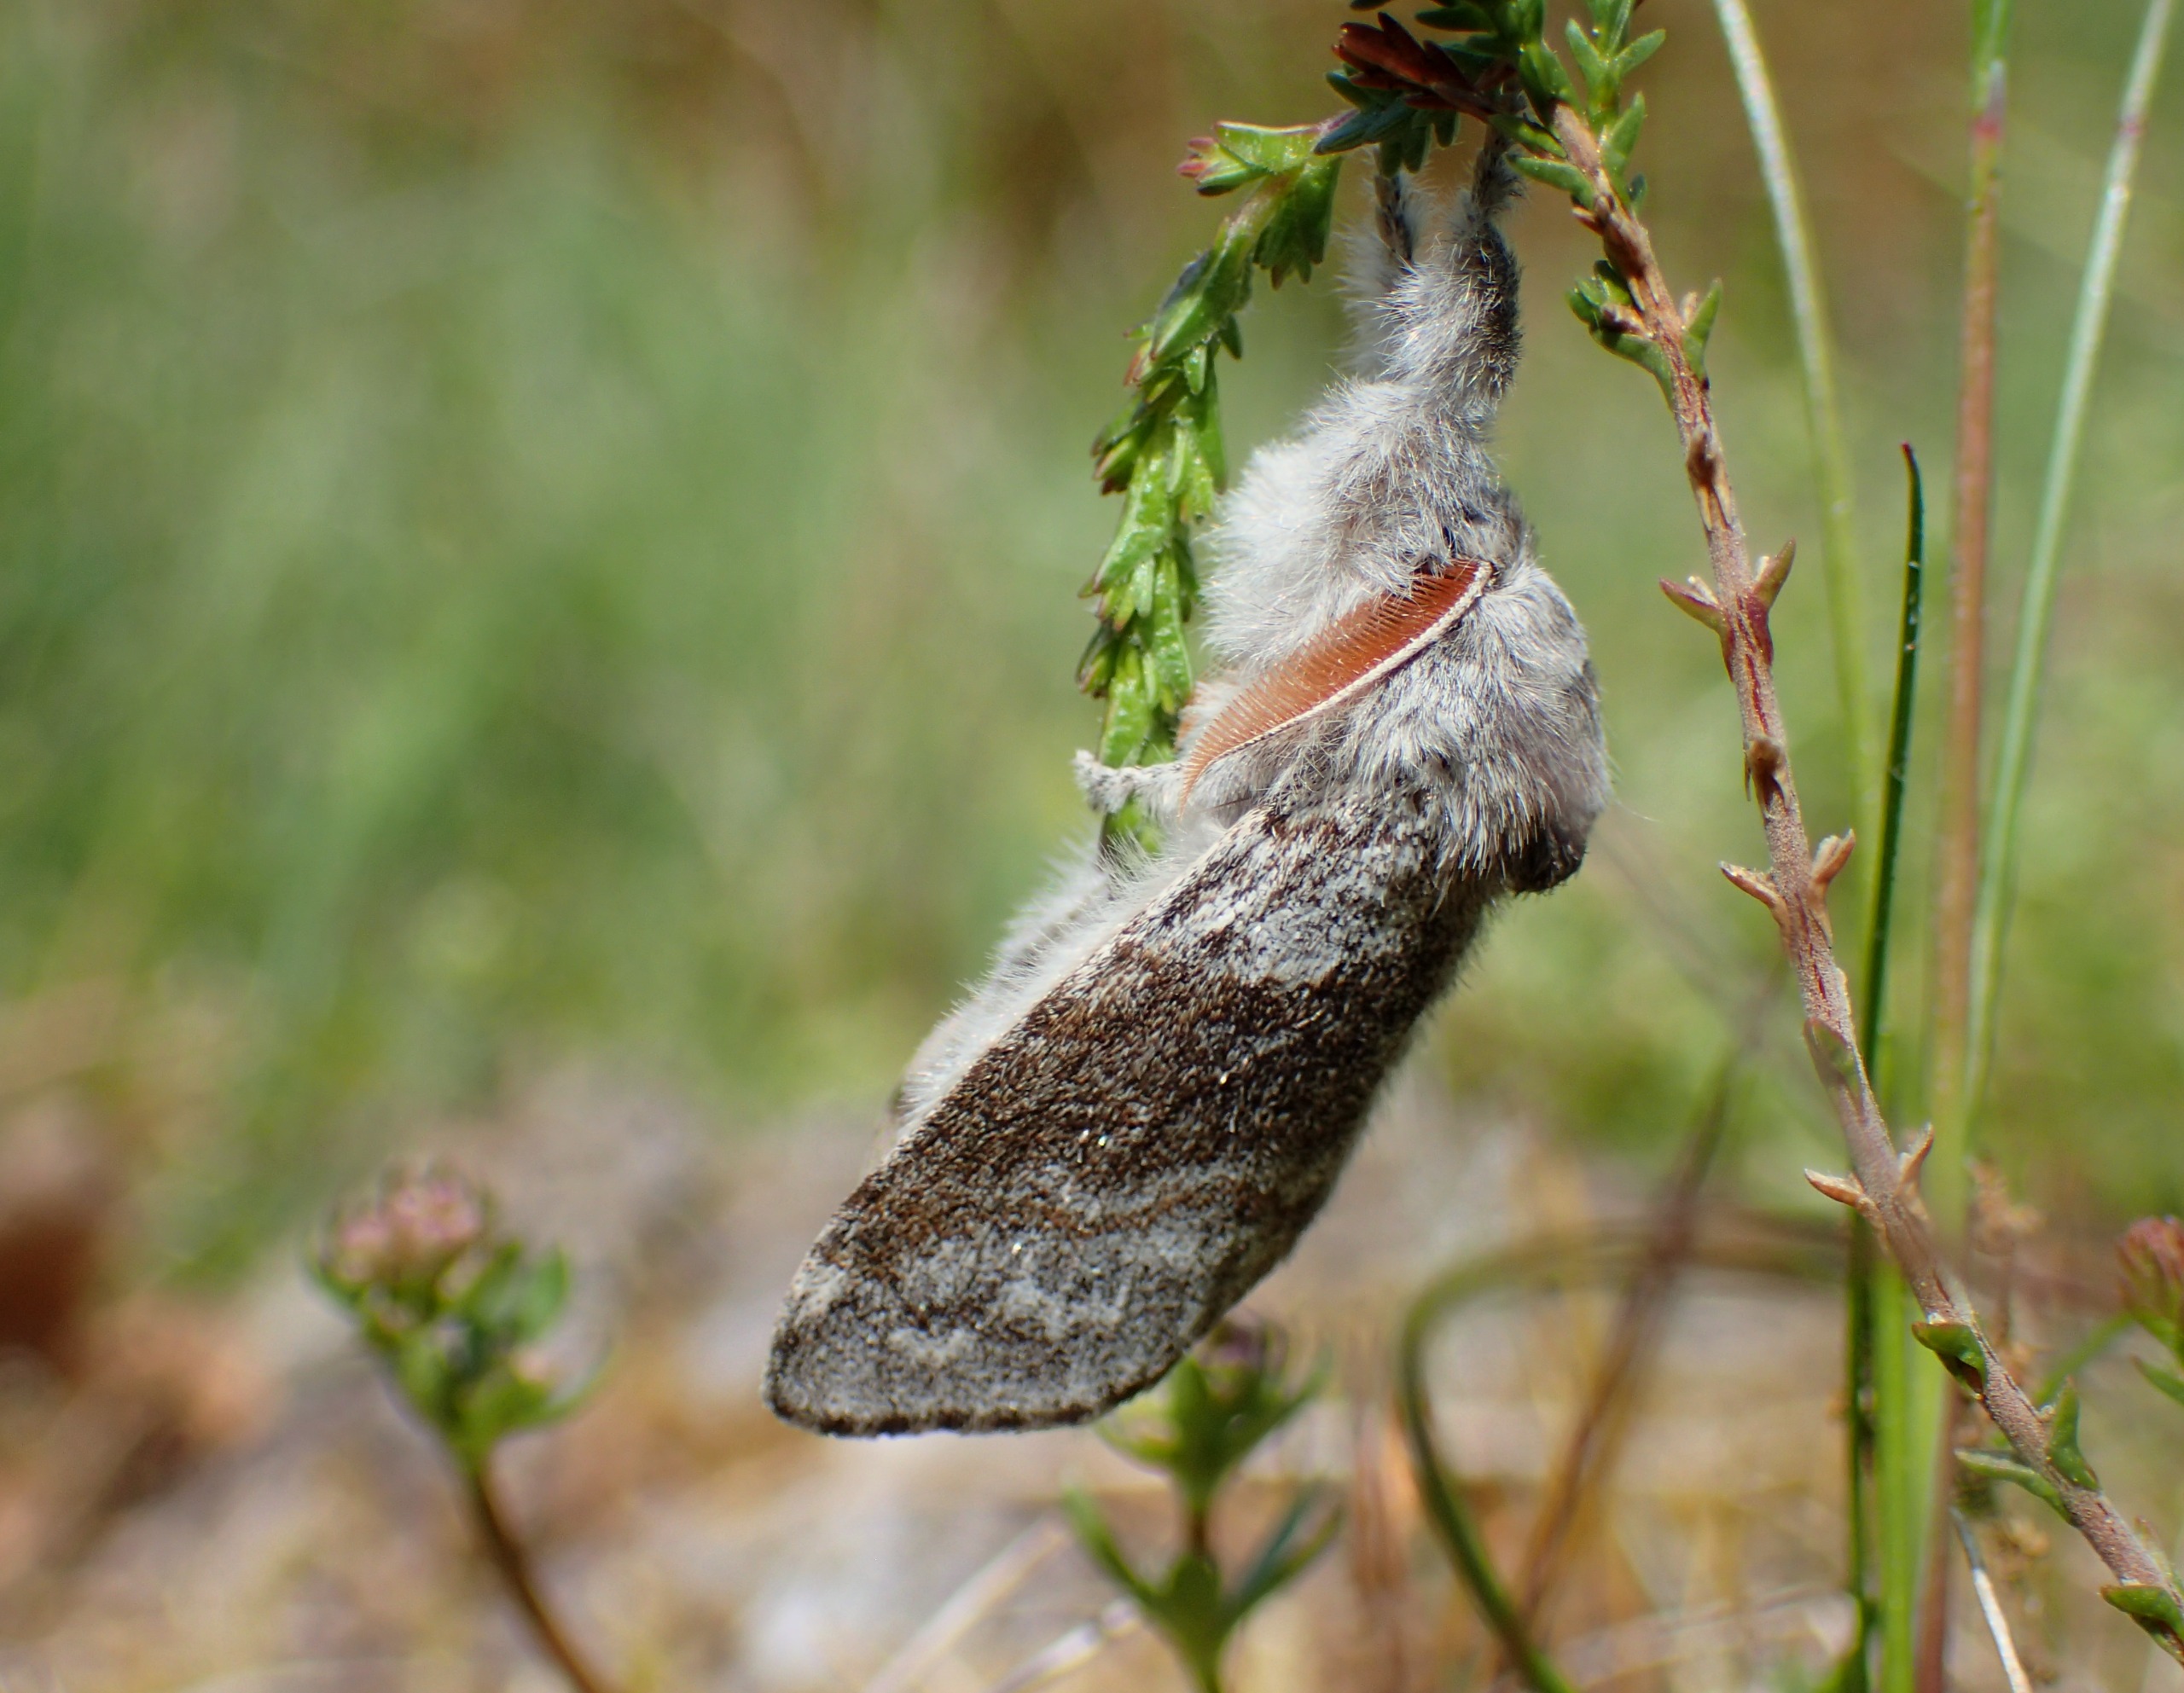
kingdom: Animalia
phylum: Arthropoda
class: Insecta
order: Lepidoptera
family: Erebidae
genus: Calliteara
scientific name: Calliteara pudibunda
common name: Bøgenonne
